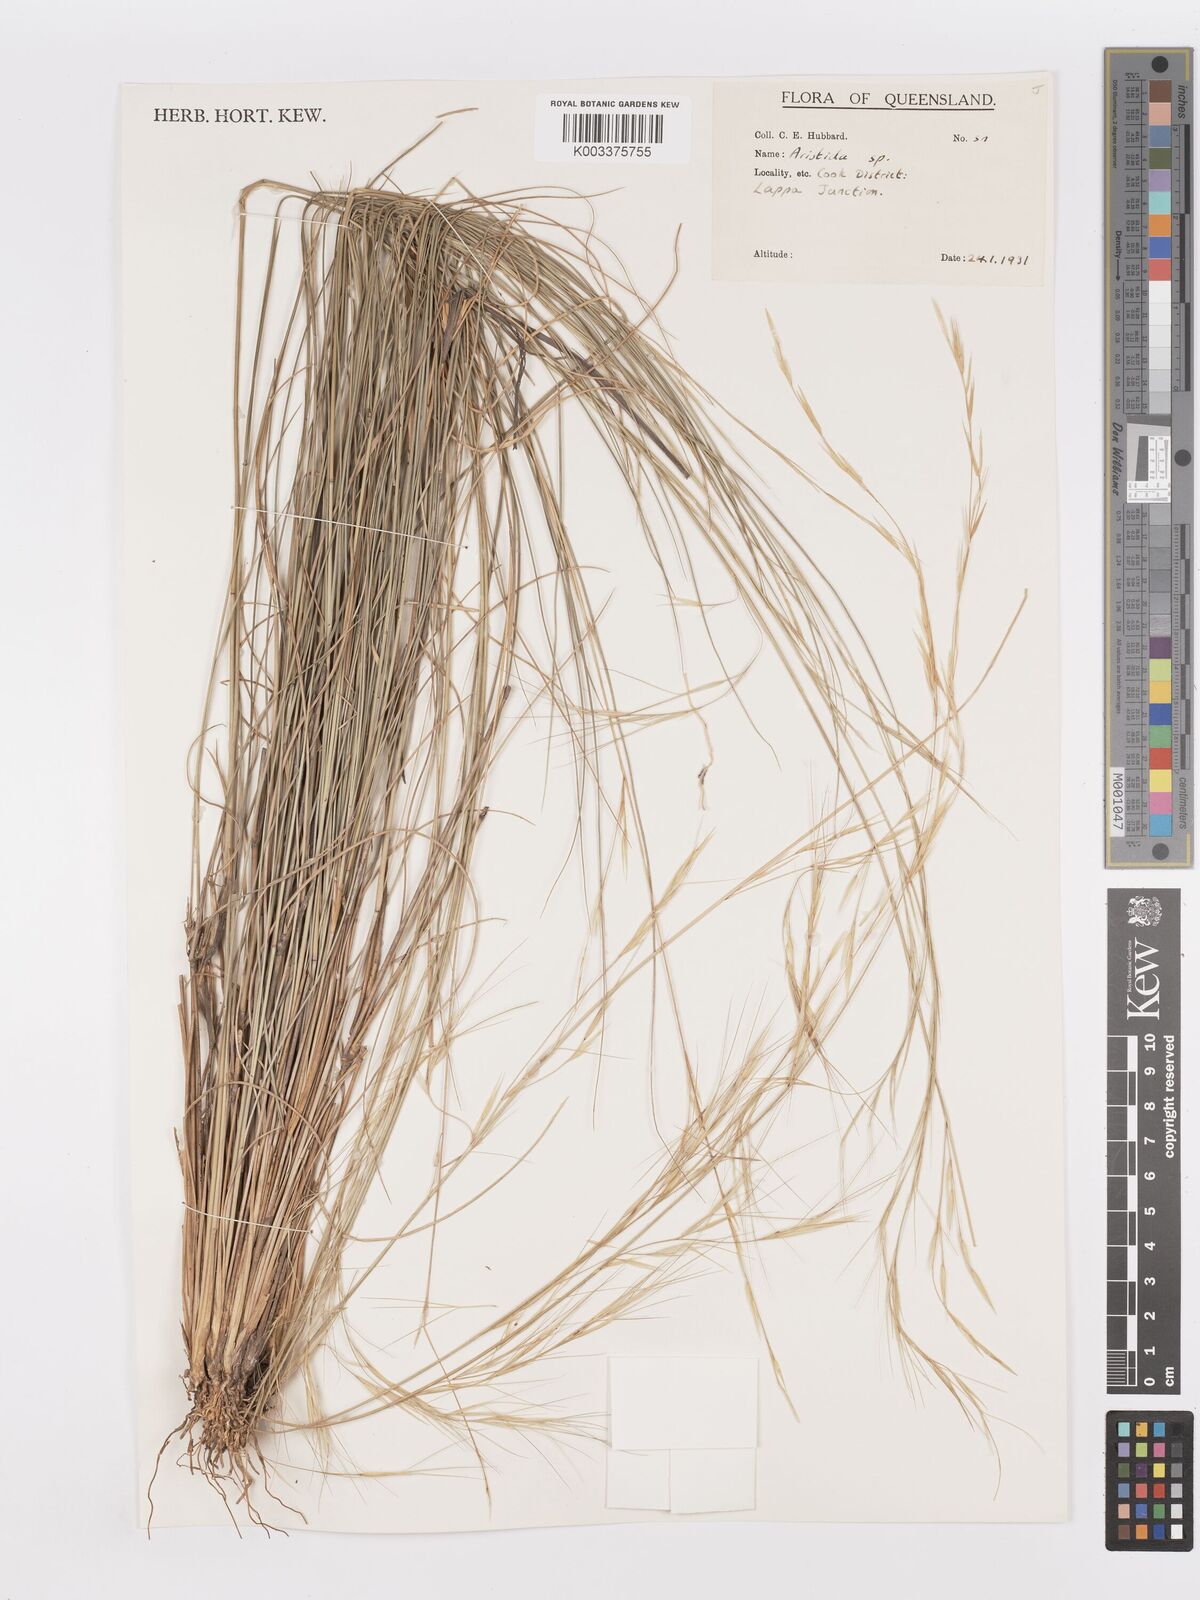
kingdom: Plantae
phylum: Tracheophyta
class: Liliopsida
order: Poales
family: Poaceae
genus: Aristida
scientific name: Aristida
